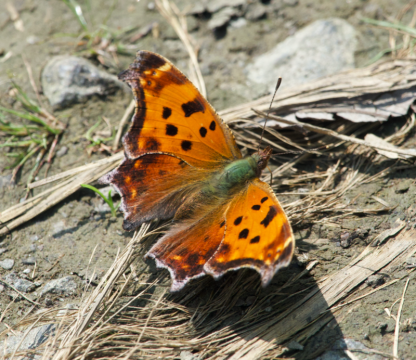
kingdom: Animalia
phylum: Arthropoda
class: Insecta
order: Lepidoptera
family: Nymphalidae
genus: Polygonia
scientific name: Polygonia comma
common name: Eastern Comma
